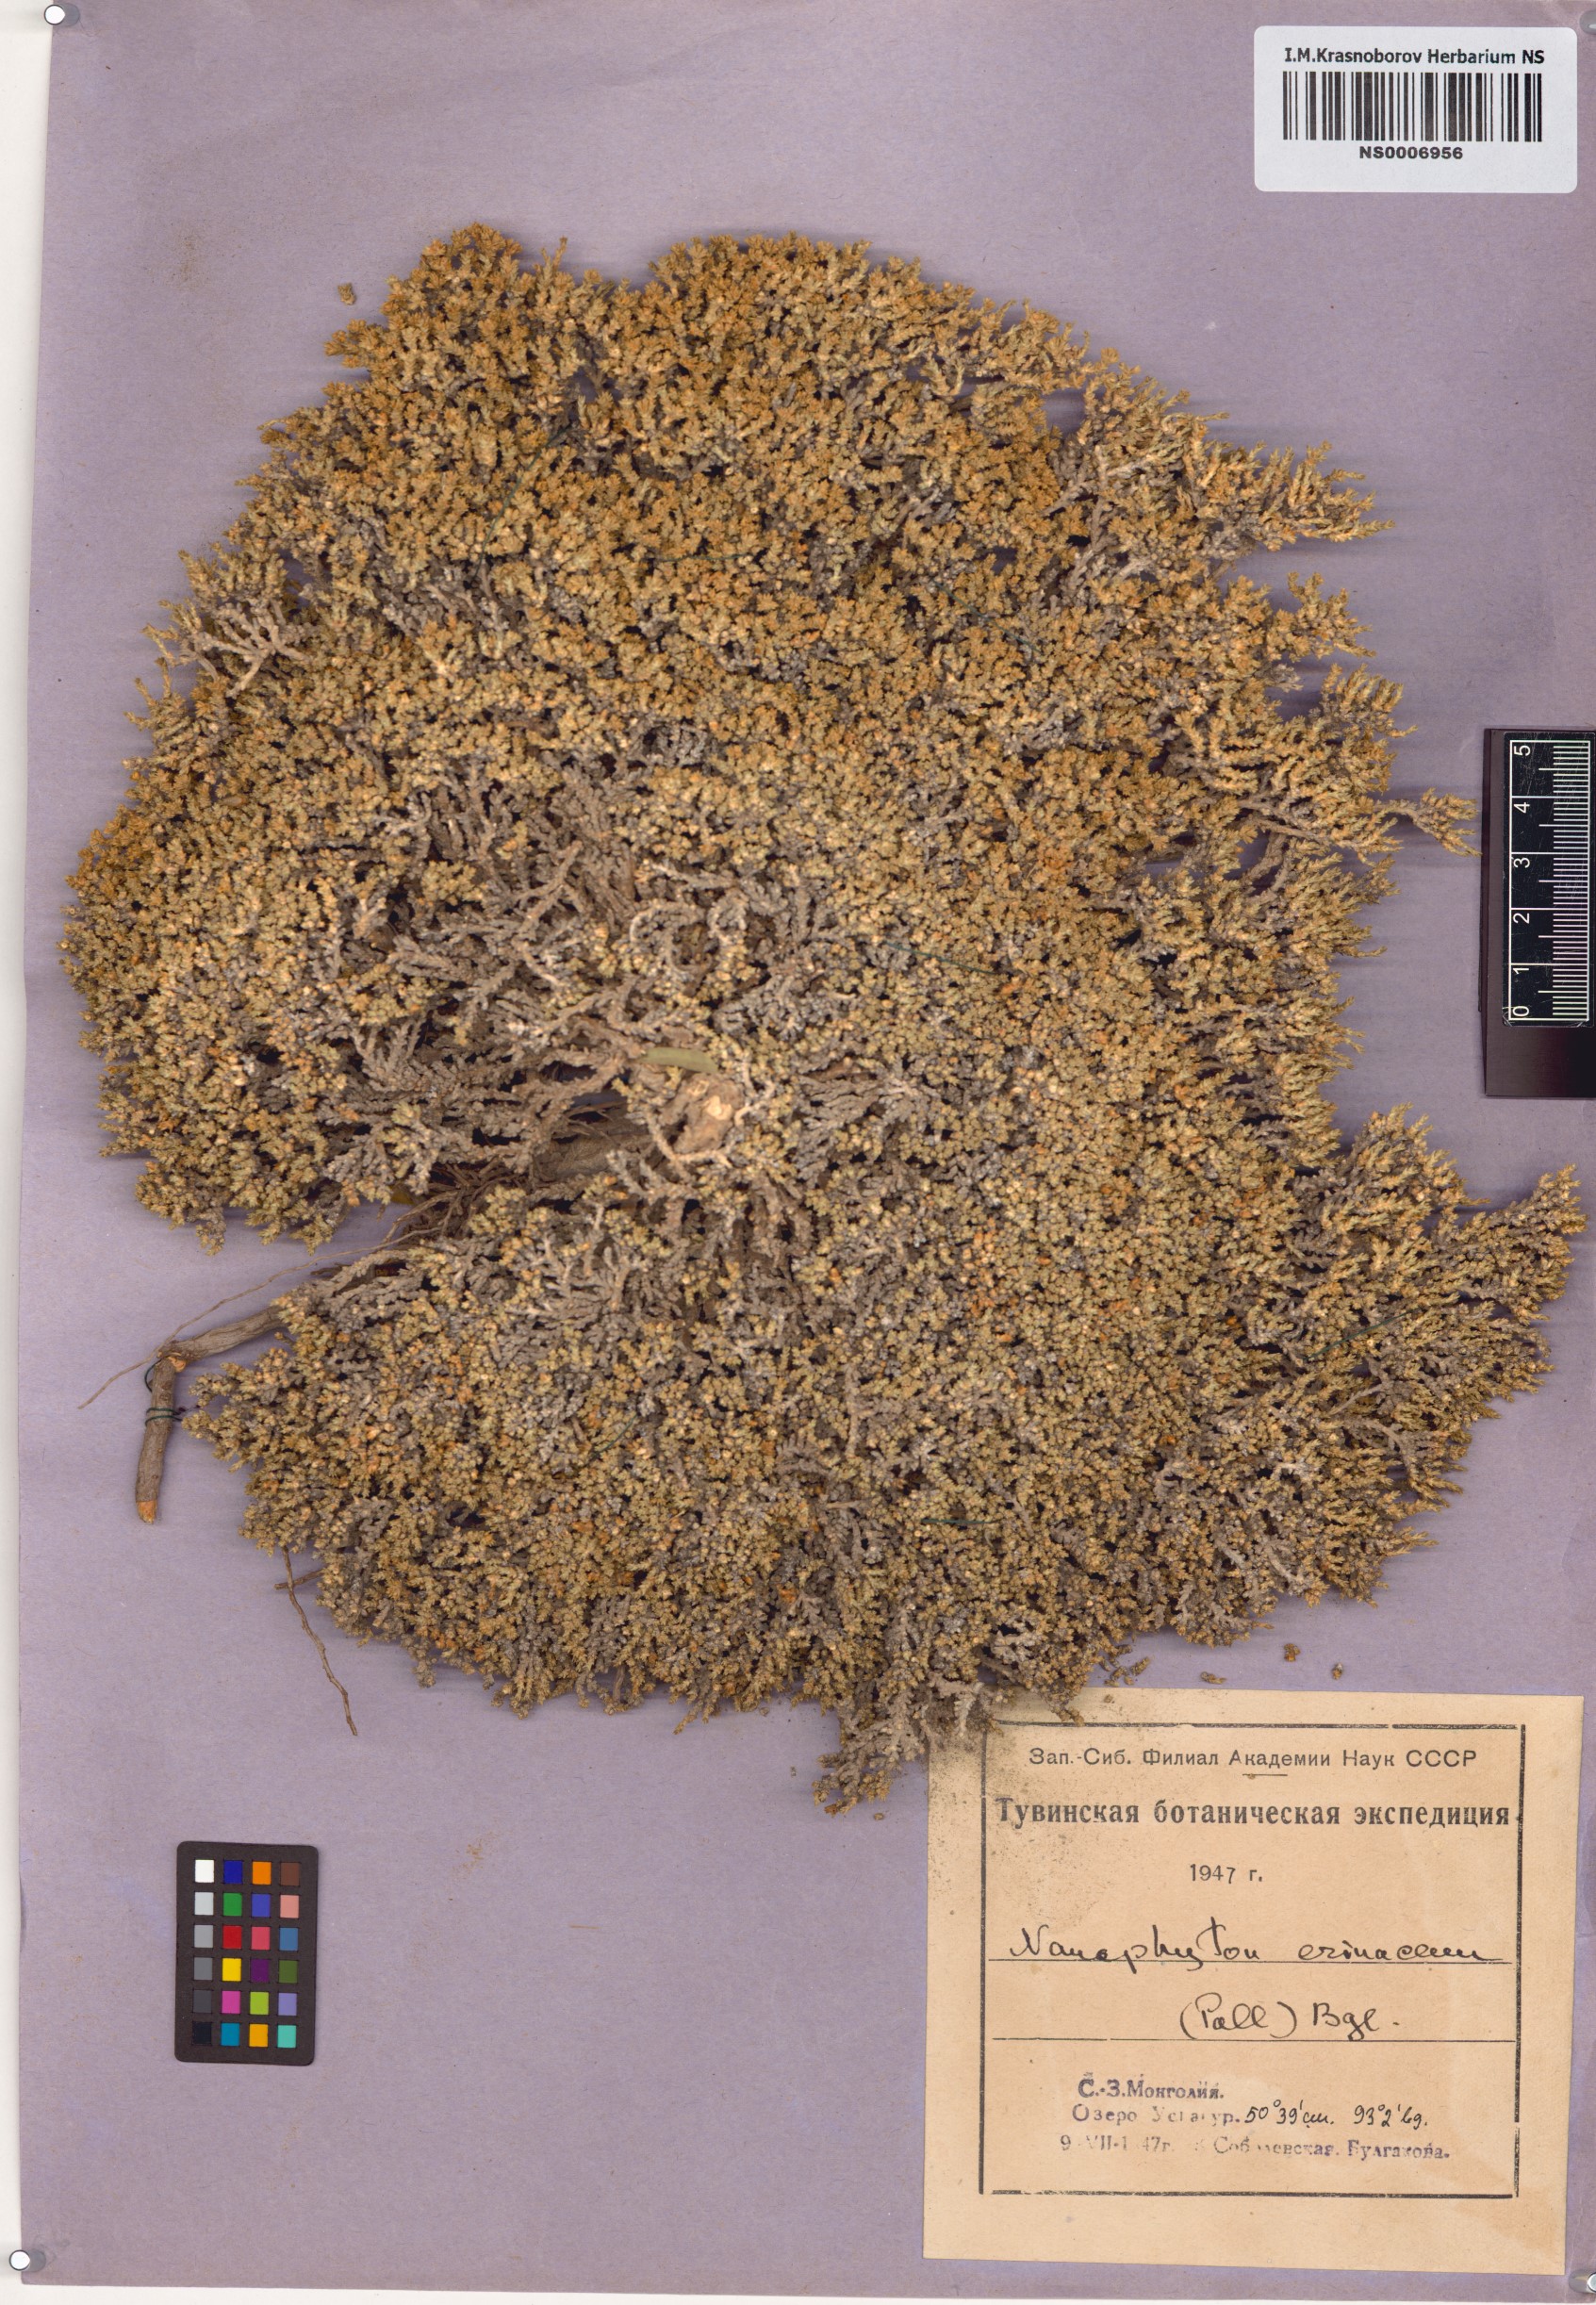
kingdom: Plantae
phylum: Tracheophyta
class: Magnoliopsida
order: Caryophyllales
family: Amaranthaceae
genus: Nanophyton
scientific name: Nanophyton erinaceum
